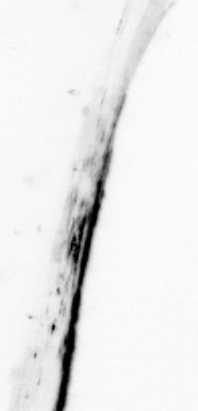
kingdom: Animalia
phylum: Chaetognatha
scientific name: Chaetognatha
